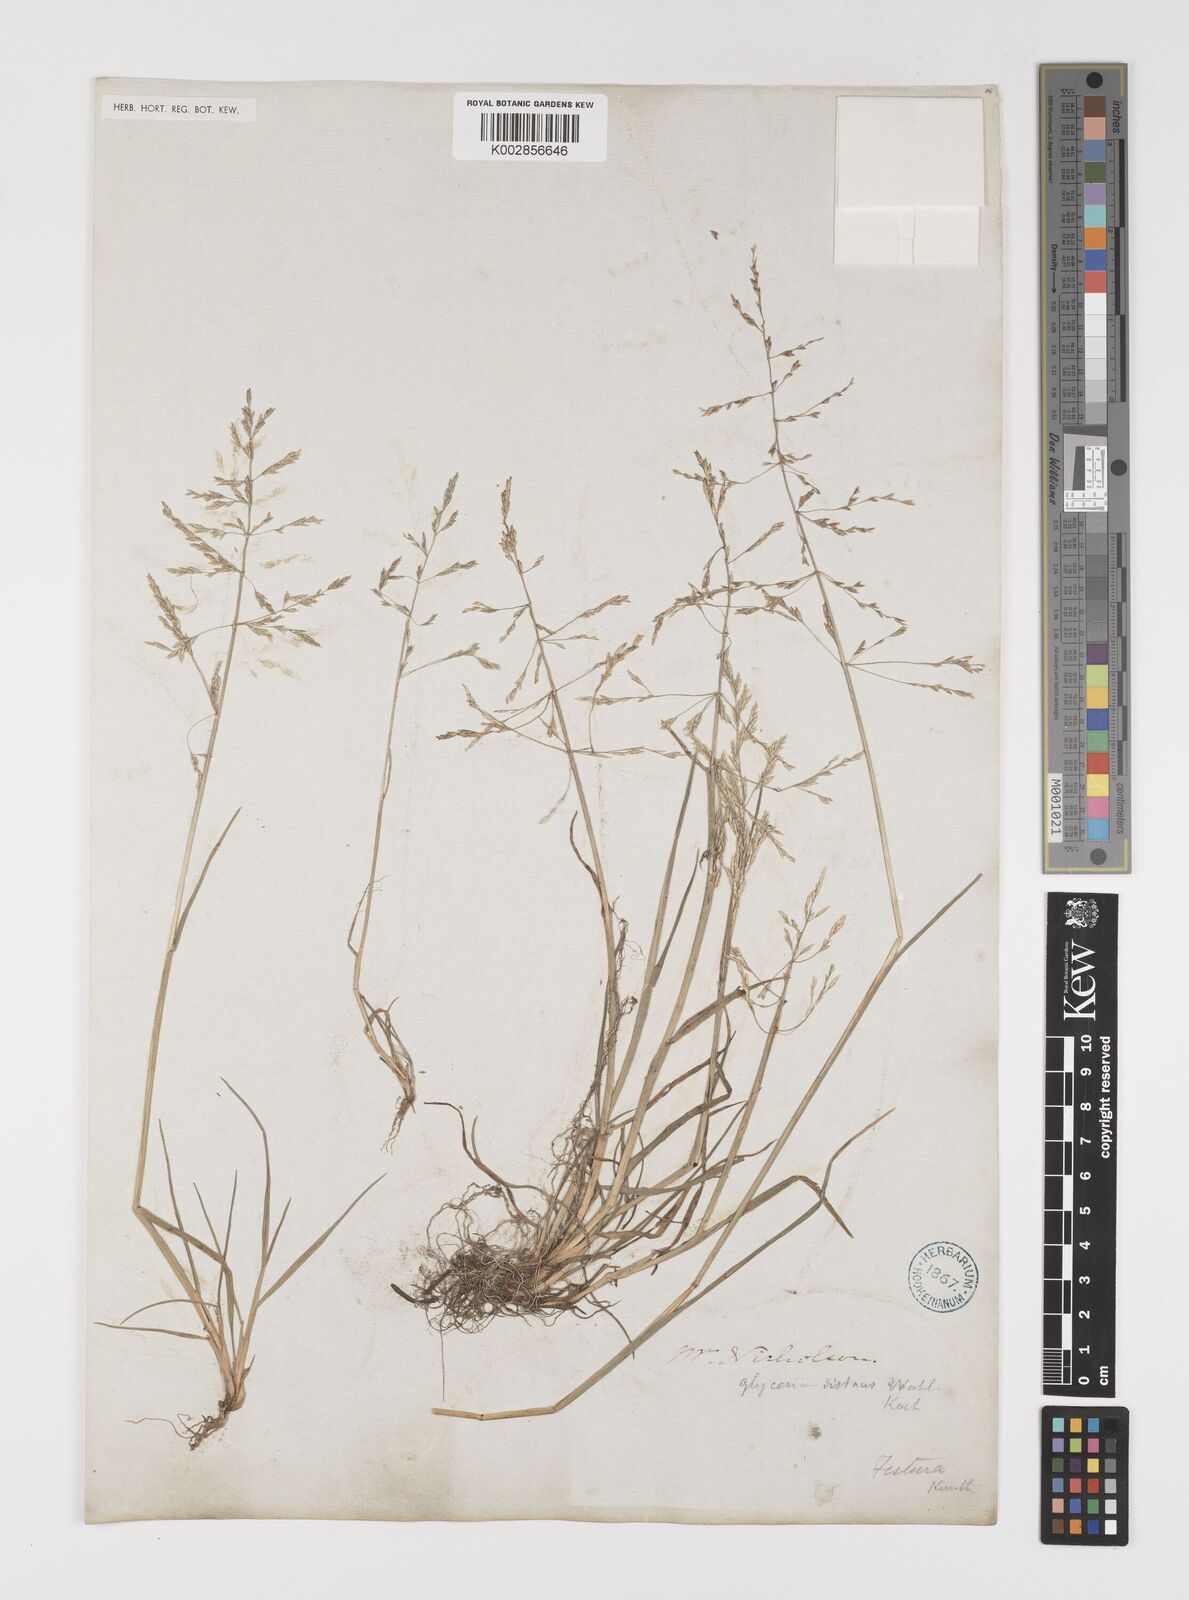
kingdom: Plantae
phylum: Tracheophyta
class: Liliopsida
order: Poales
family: Poaceae
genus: Puccinellia
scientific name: Puccinellia distans
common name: Weeping alkaligrass
